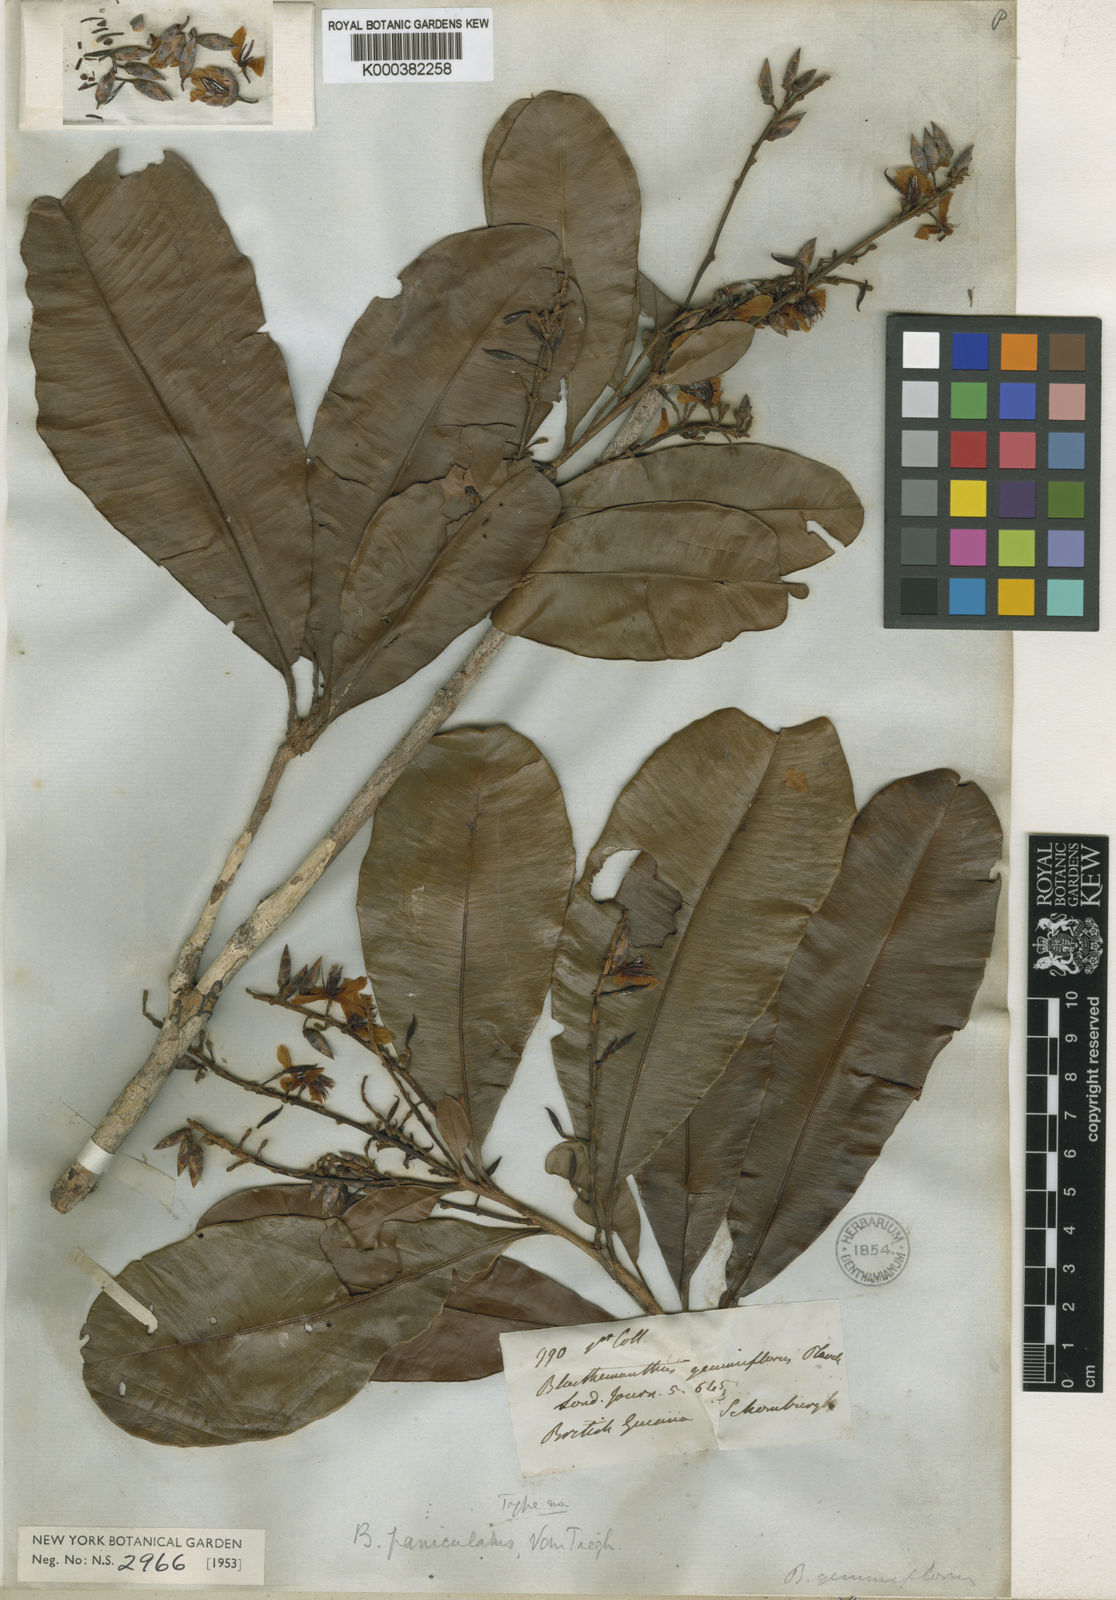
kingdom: Plantae
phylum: Tracheophyta
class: Magnoliopsida
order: Malpighiales
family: Ochnaceae
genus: Blastemanthus
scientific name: Blastemanthus gemmiflorus
